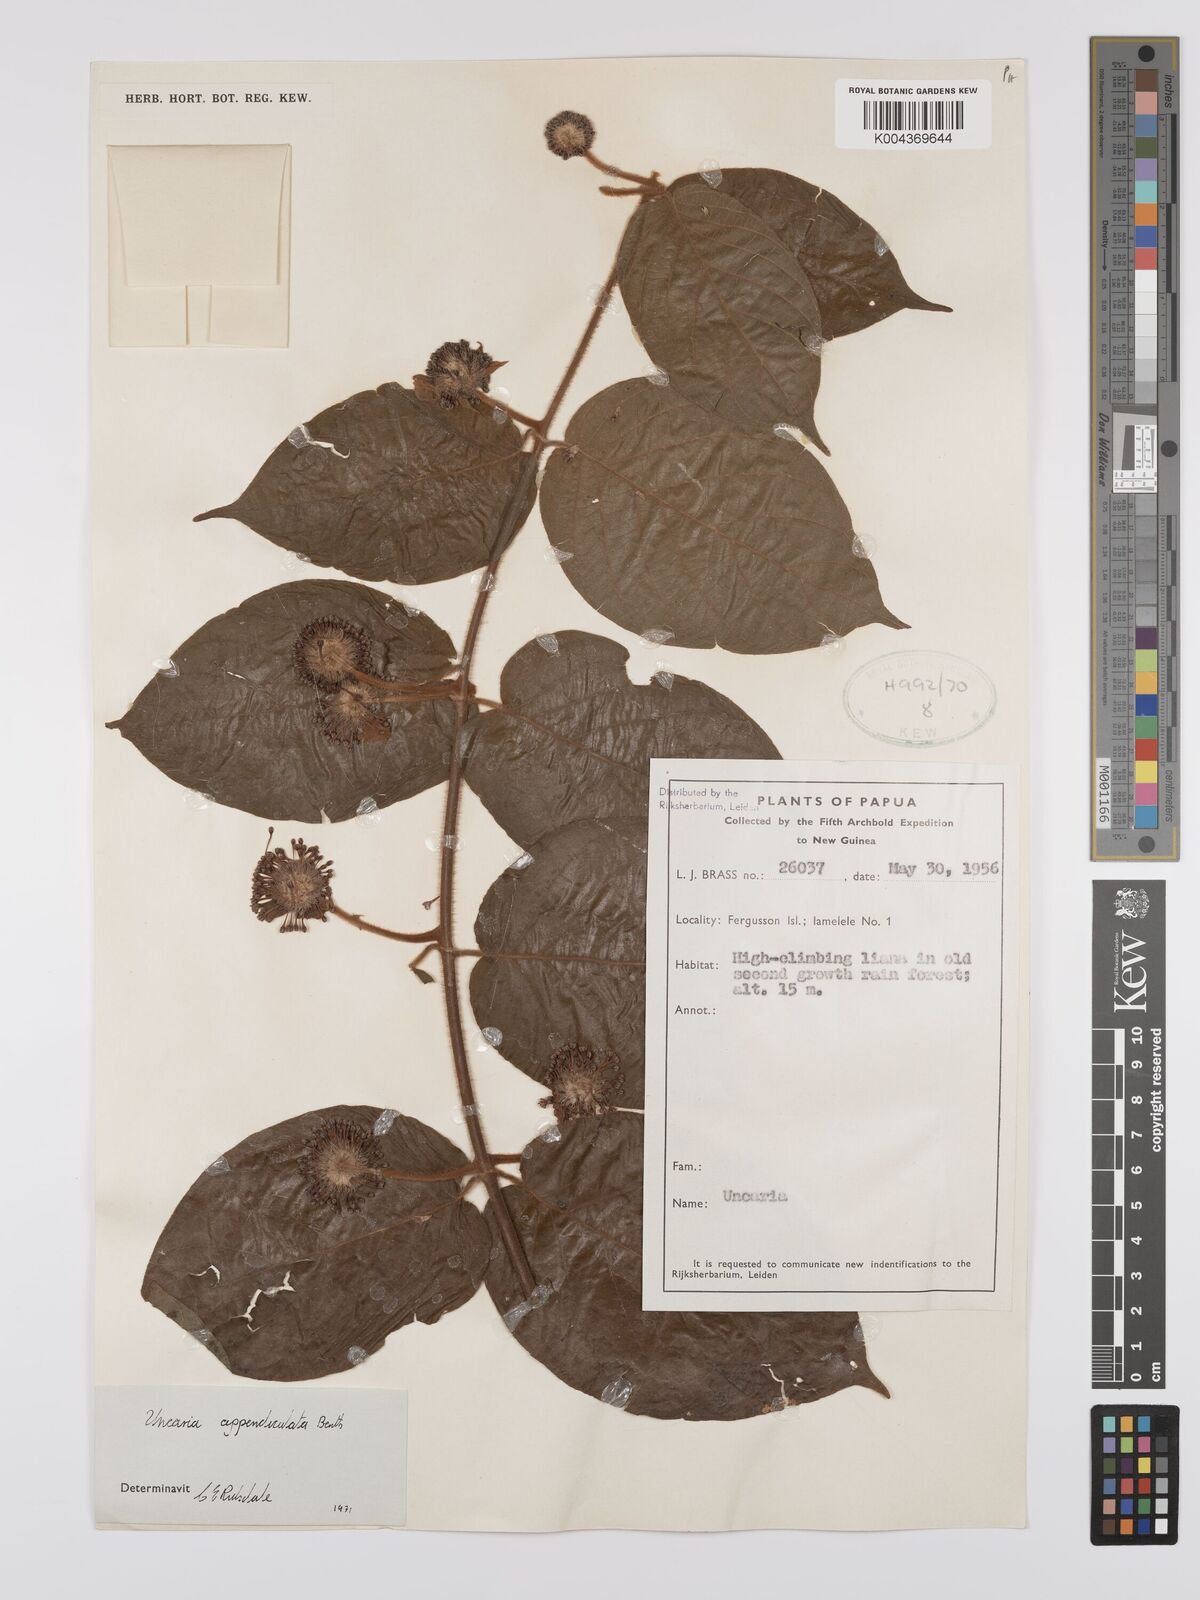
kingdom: Plantae
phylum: Tracheophyta
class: Magnoliopsida
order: Gentianales
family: Rubiaceae
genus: Uncaria
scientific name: Uncaria lanosa
